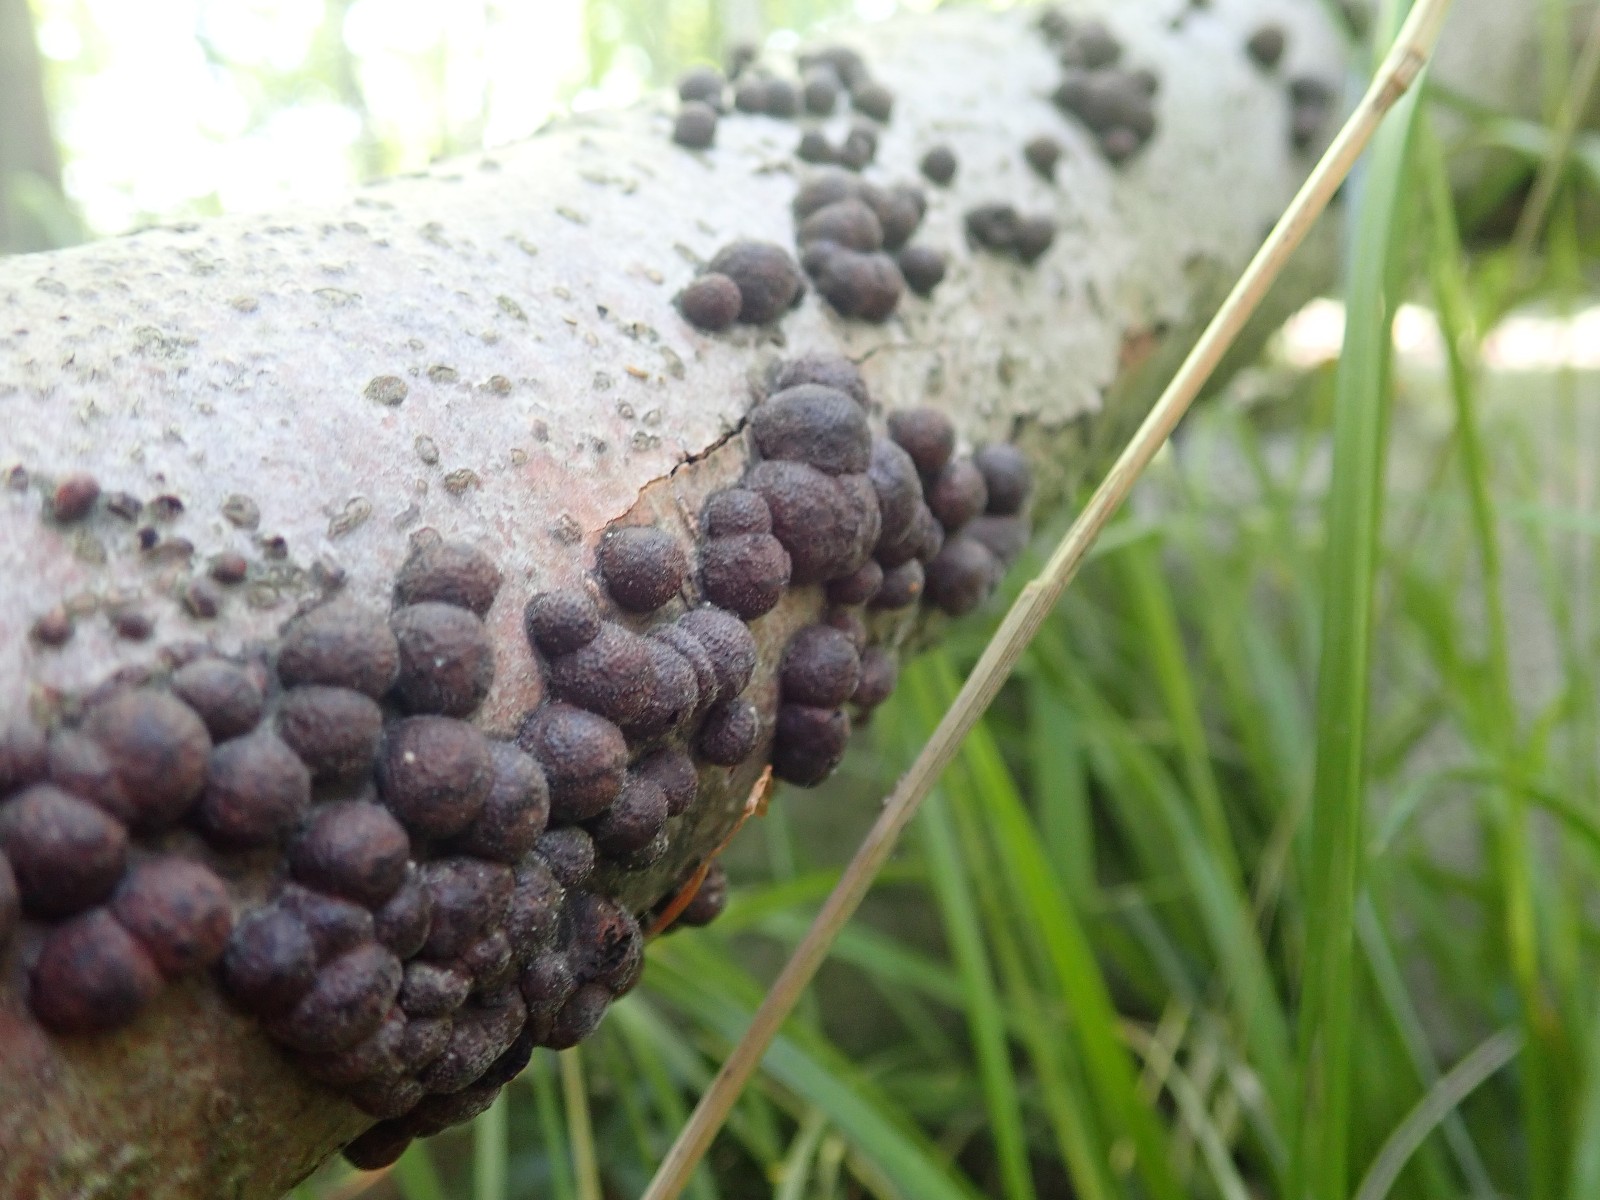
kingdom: Fungi
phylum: Ascomycota
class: Sordariomycetes
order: Xylariales
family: Hypoxylaceae
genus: Hypoxylon
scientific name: Hypoxylon fragiforme
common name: kuljordbær
